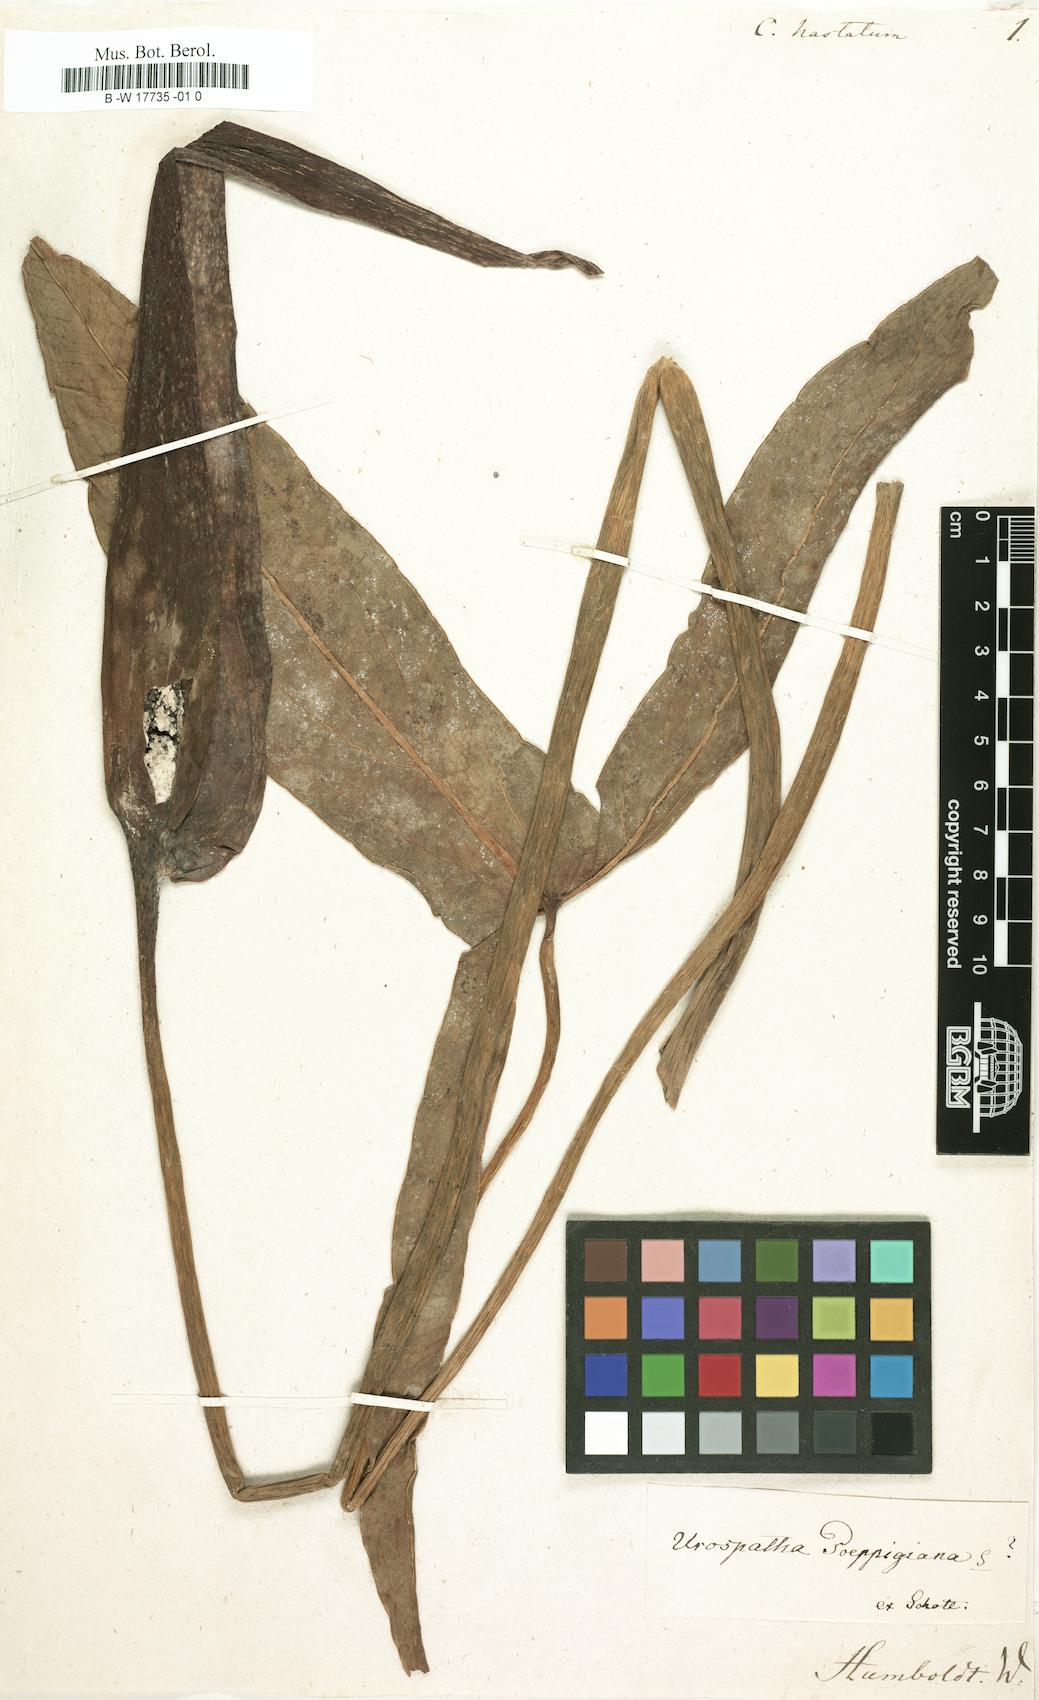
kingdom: Plantae
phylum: Tracheophyta
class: Liliopsida
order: Alismatales
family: Araceae
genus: Caladium
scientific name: Caladium hastatum
